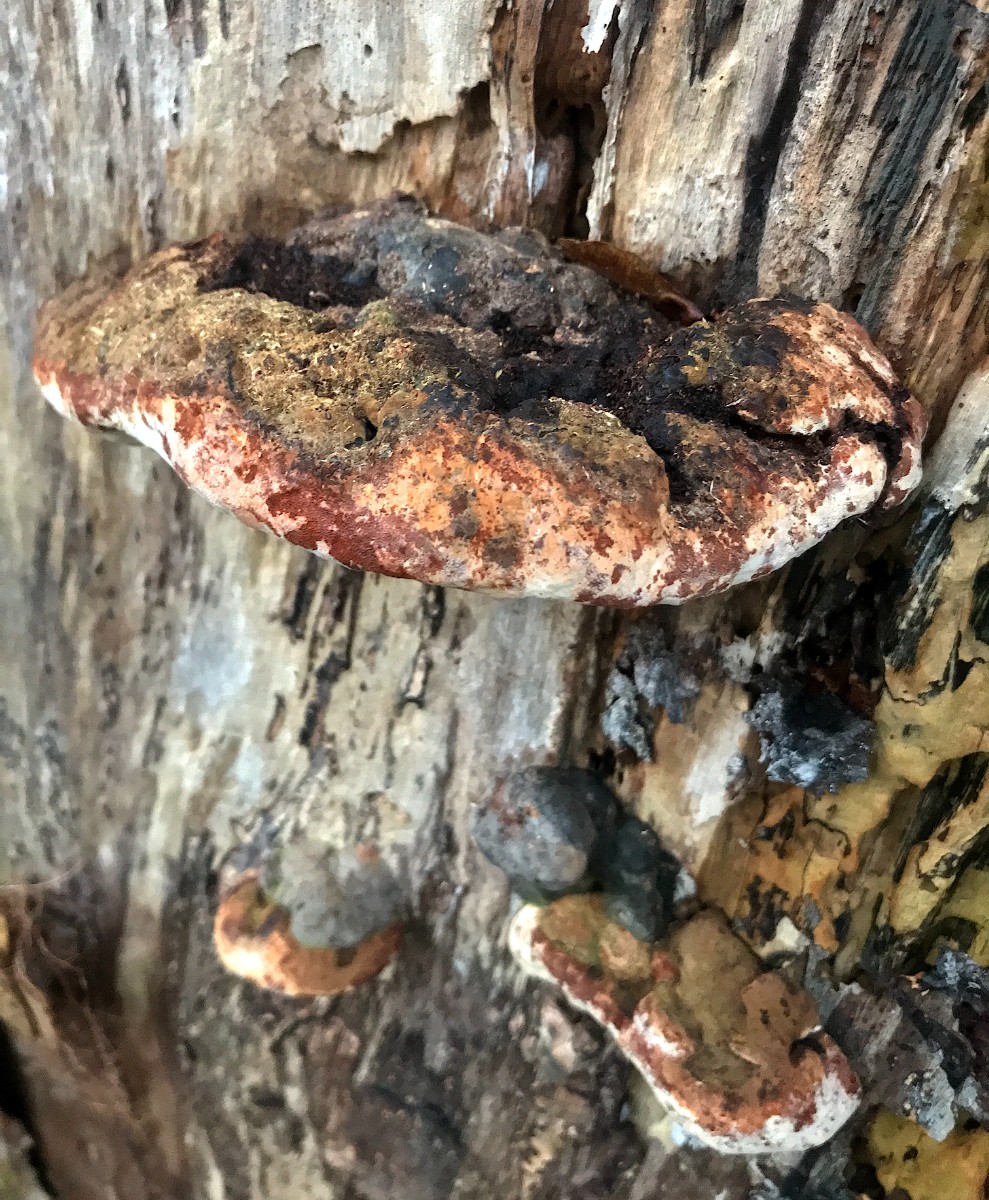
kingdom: Fungi
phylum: Basidiomycota
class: Agaricomycetes
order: Polyporales
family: Polyporaceae
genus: Ganoderma
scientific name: Ganoderma adspersum
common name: grov lakporesvamp
